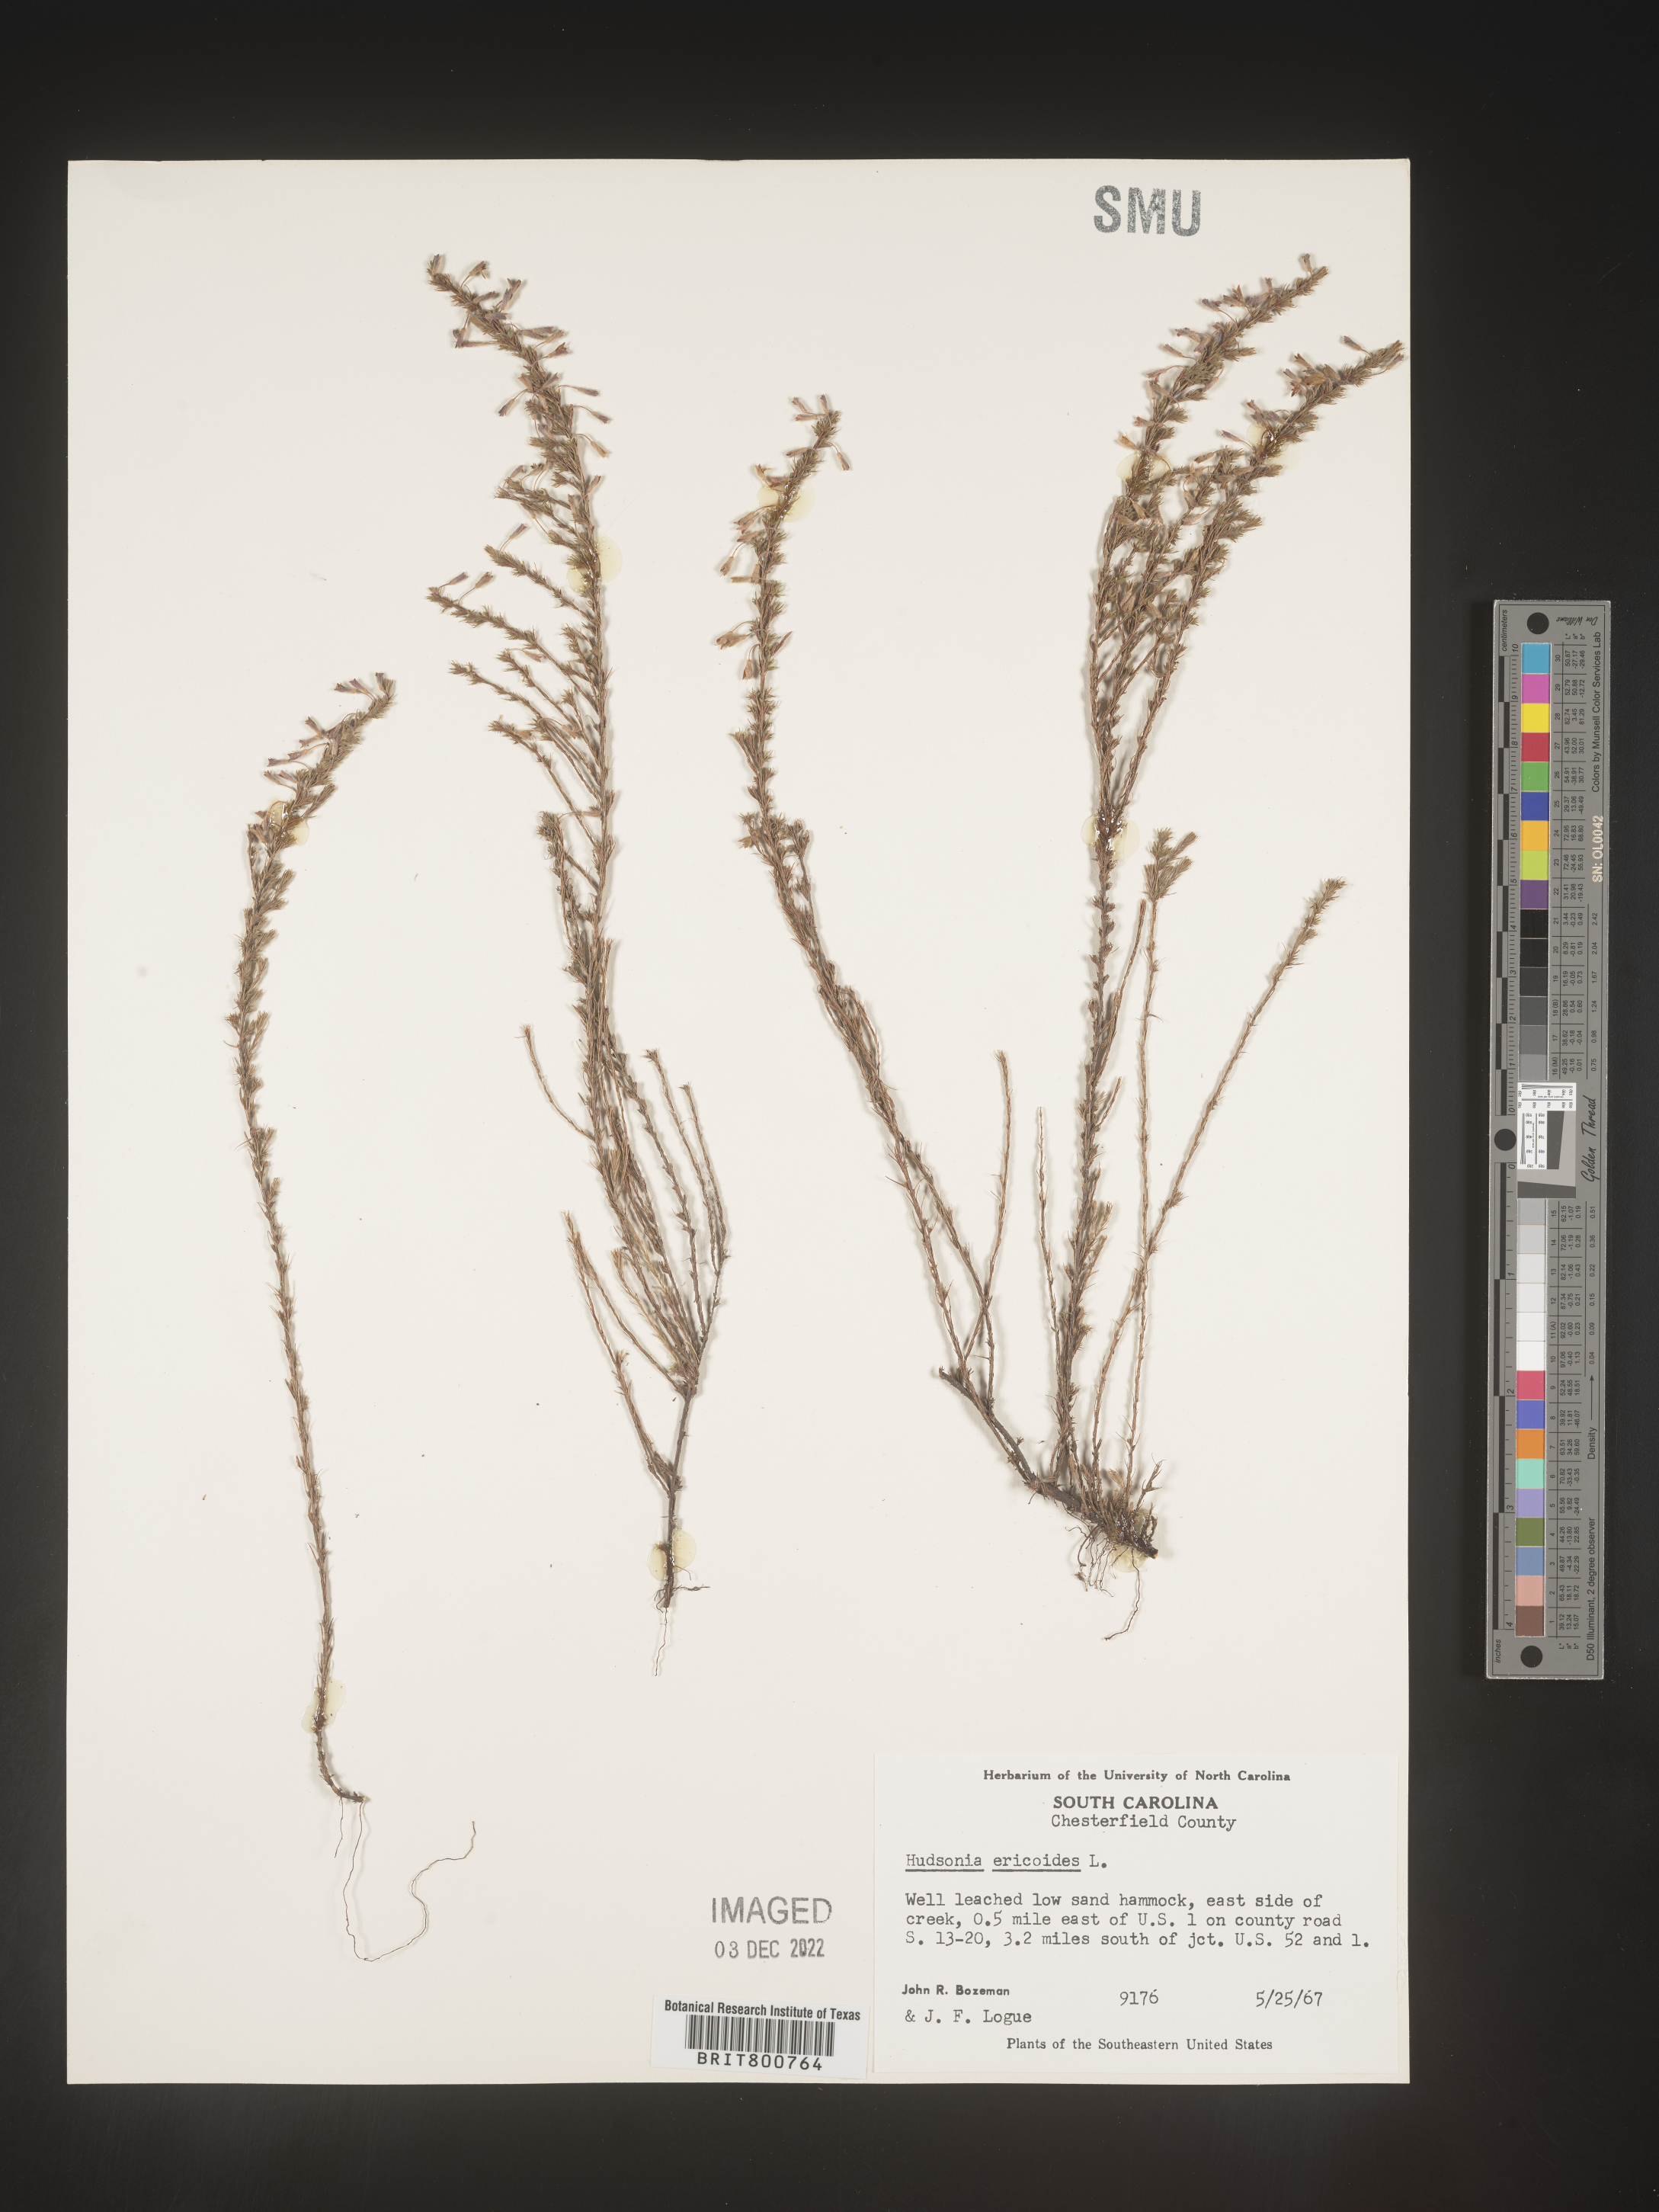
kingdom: Plantae
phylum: Tracheophyta
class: Magnoliopsida
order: Malvales
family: Cistaceae
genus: Hudsonia
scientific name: Hudsonia ericoides
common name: Golden-heather
